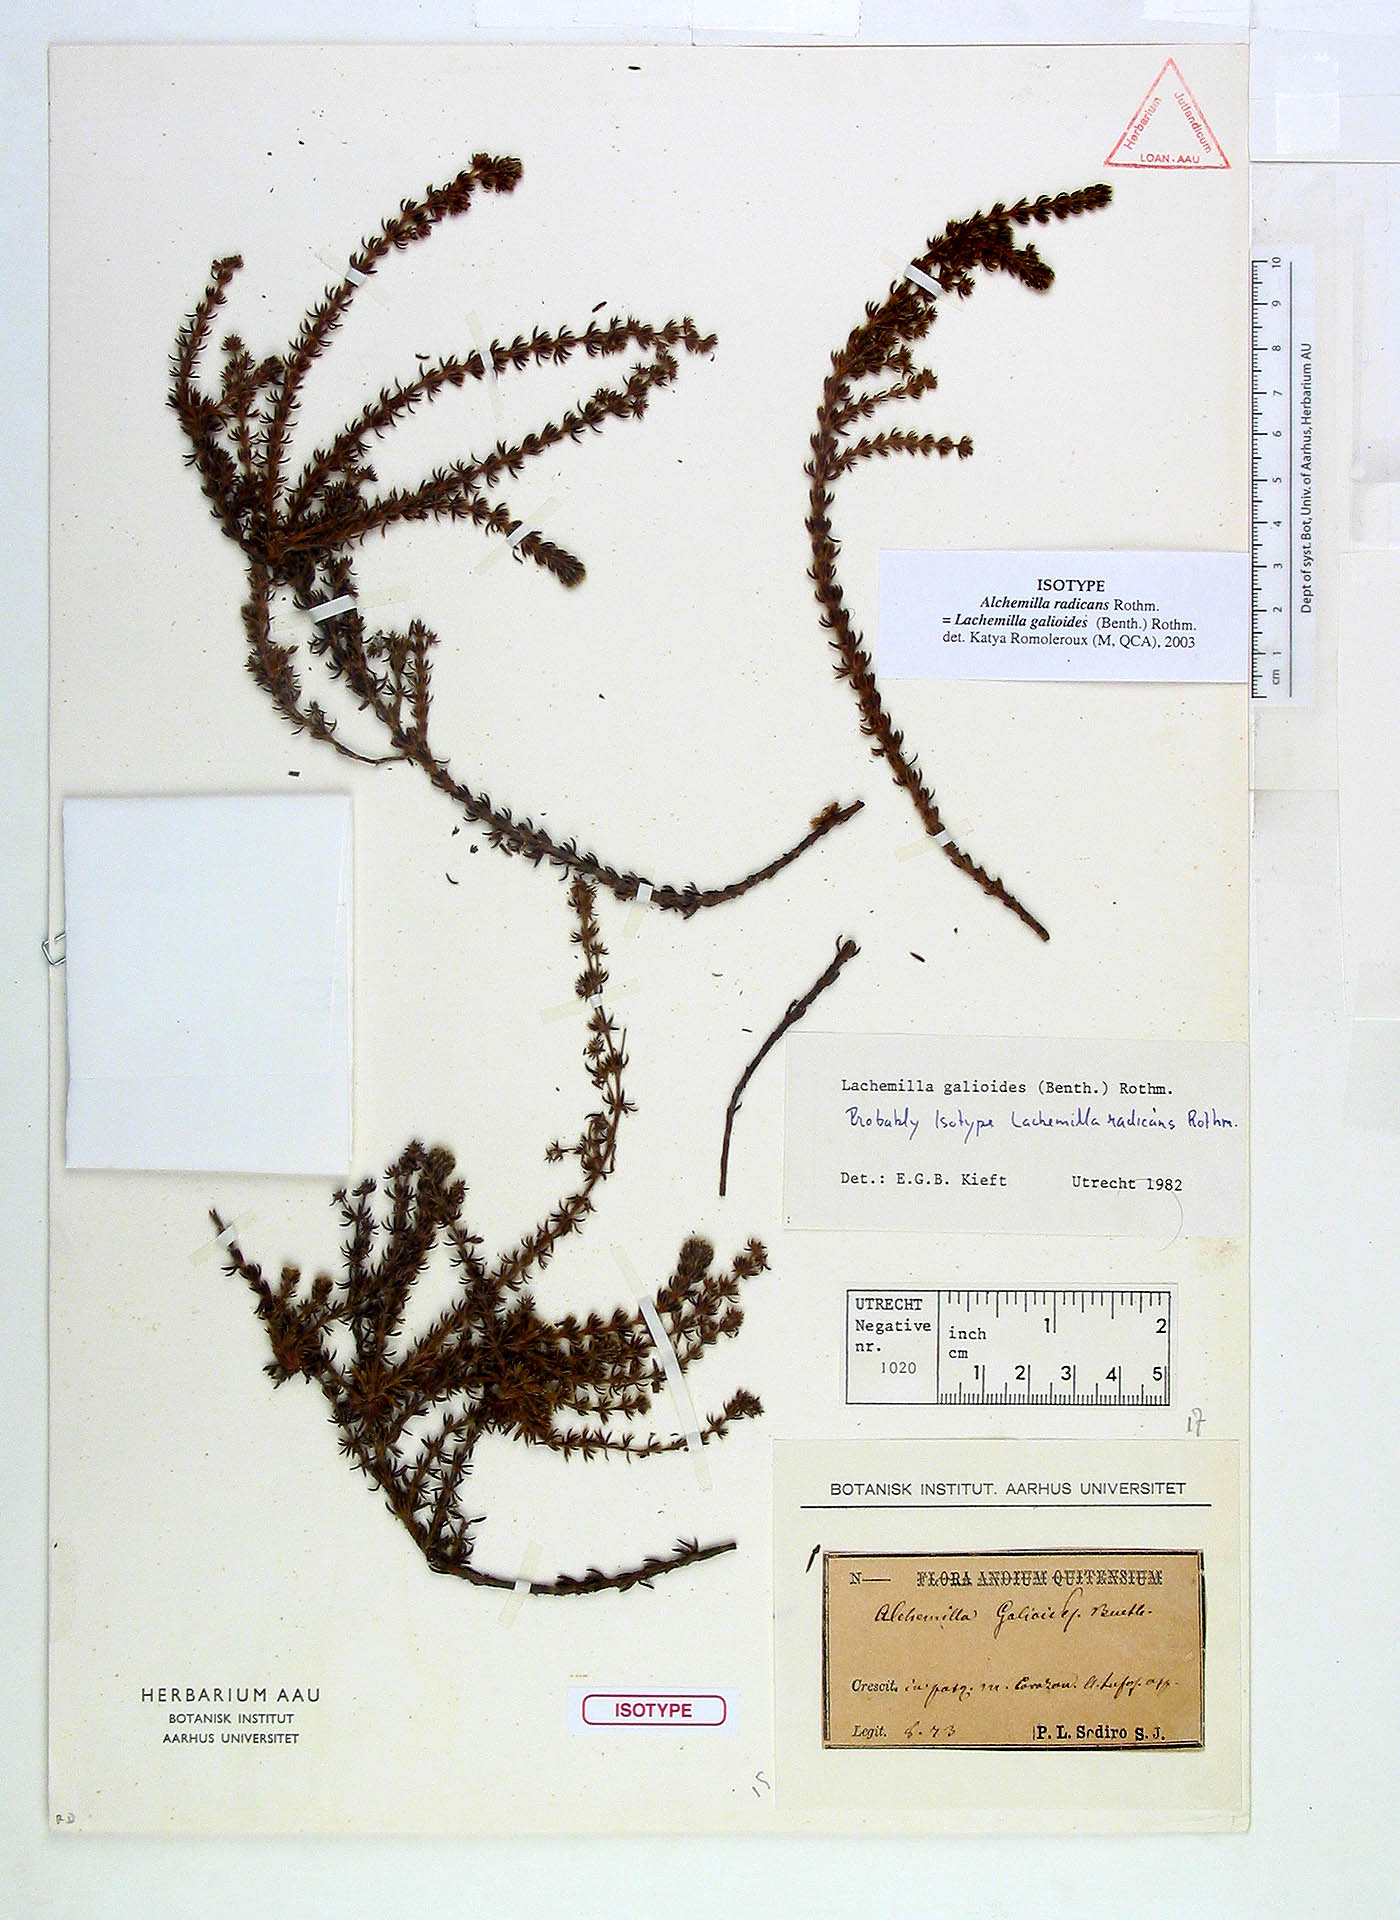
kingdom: Plantae
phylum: Tracheophyta
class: Magnoliopsida
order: Rosales
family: Rosaceae
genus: Lachemilla
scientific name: Lachemilla galioides
